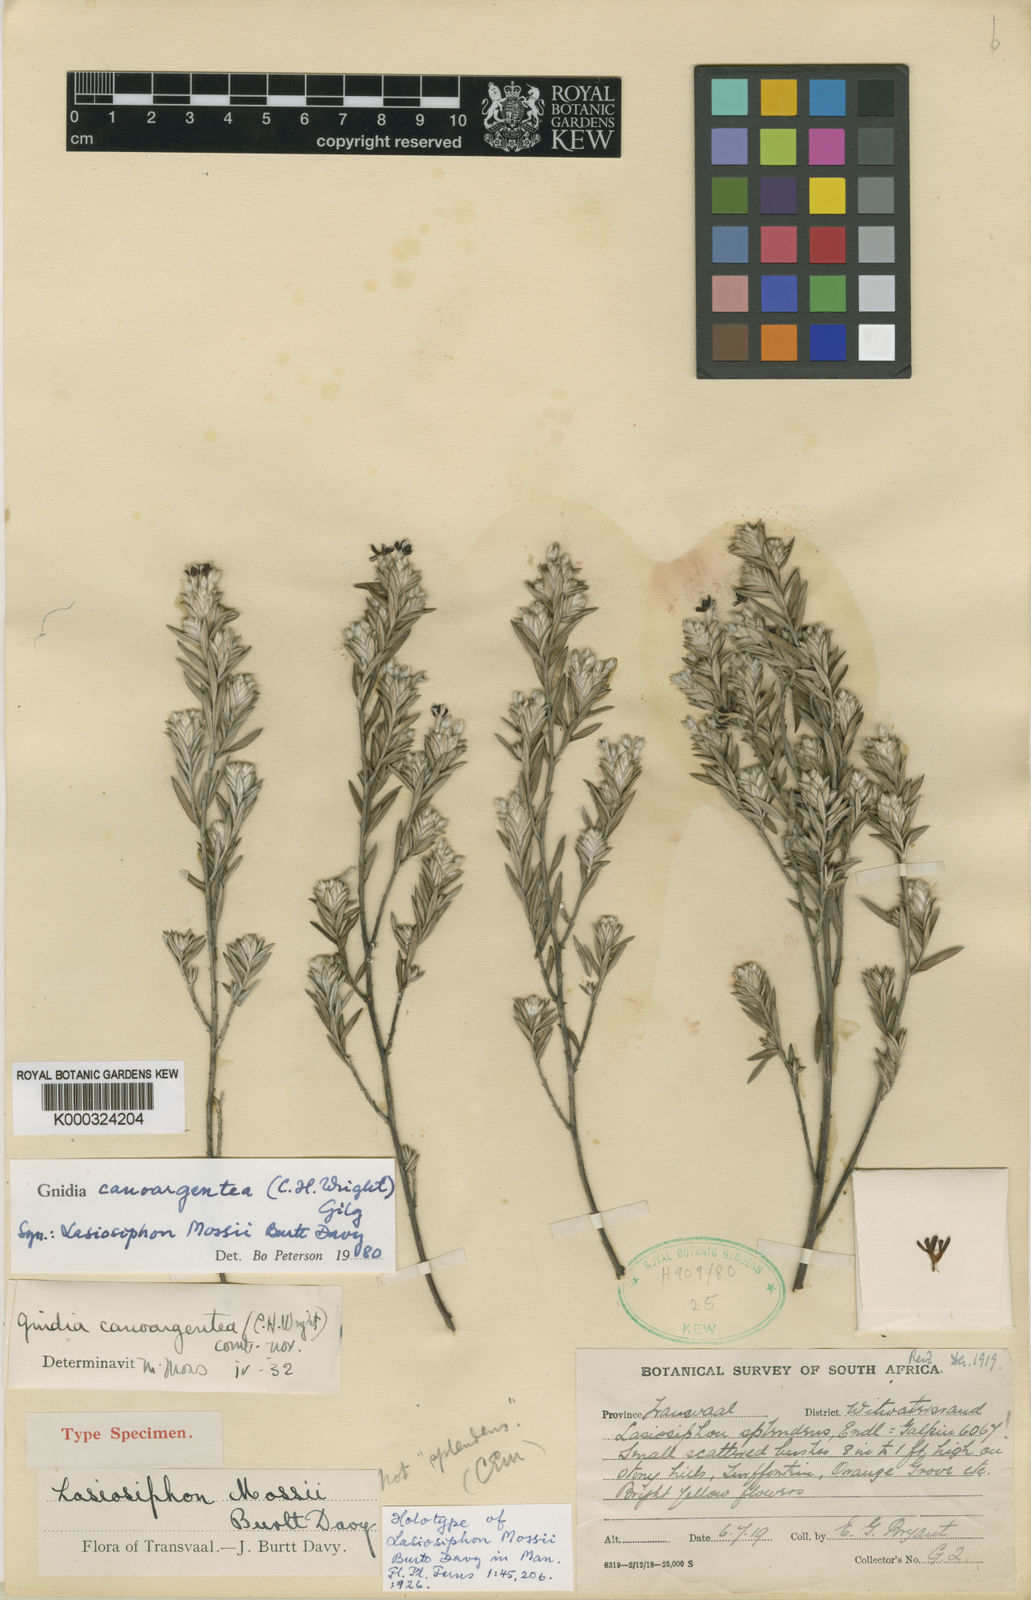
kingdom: Plantae
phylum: Tracheophyta
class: Magnoliopsida
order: Malvales
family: Thymelaeaceae
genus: Gnidia
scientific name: Gnidia canoargentea
